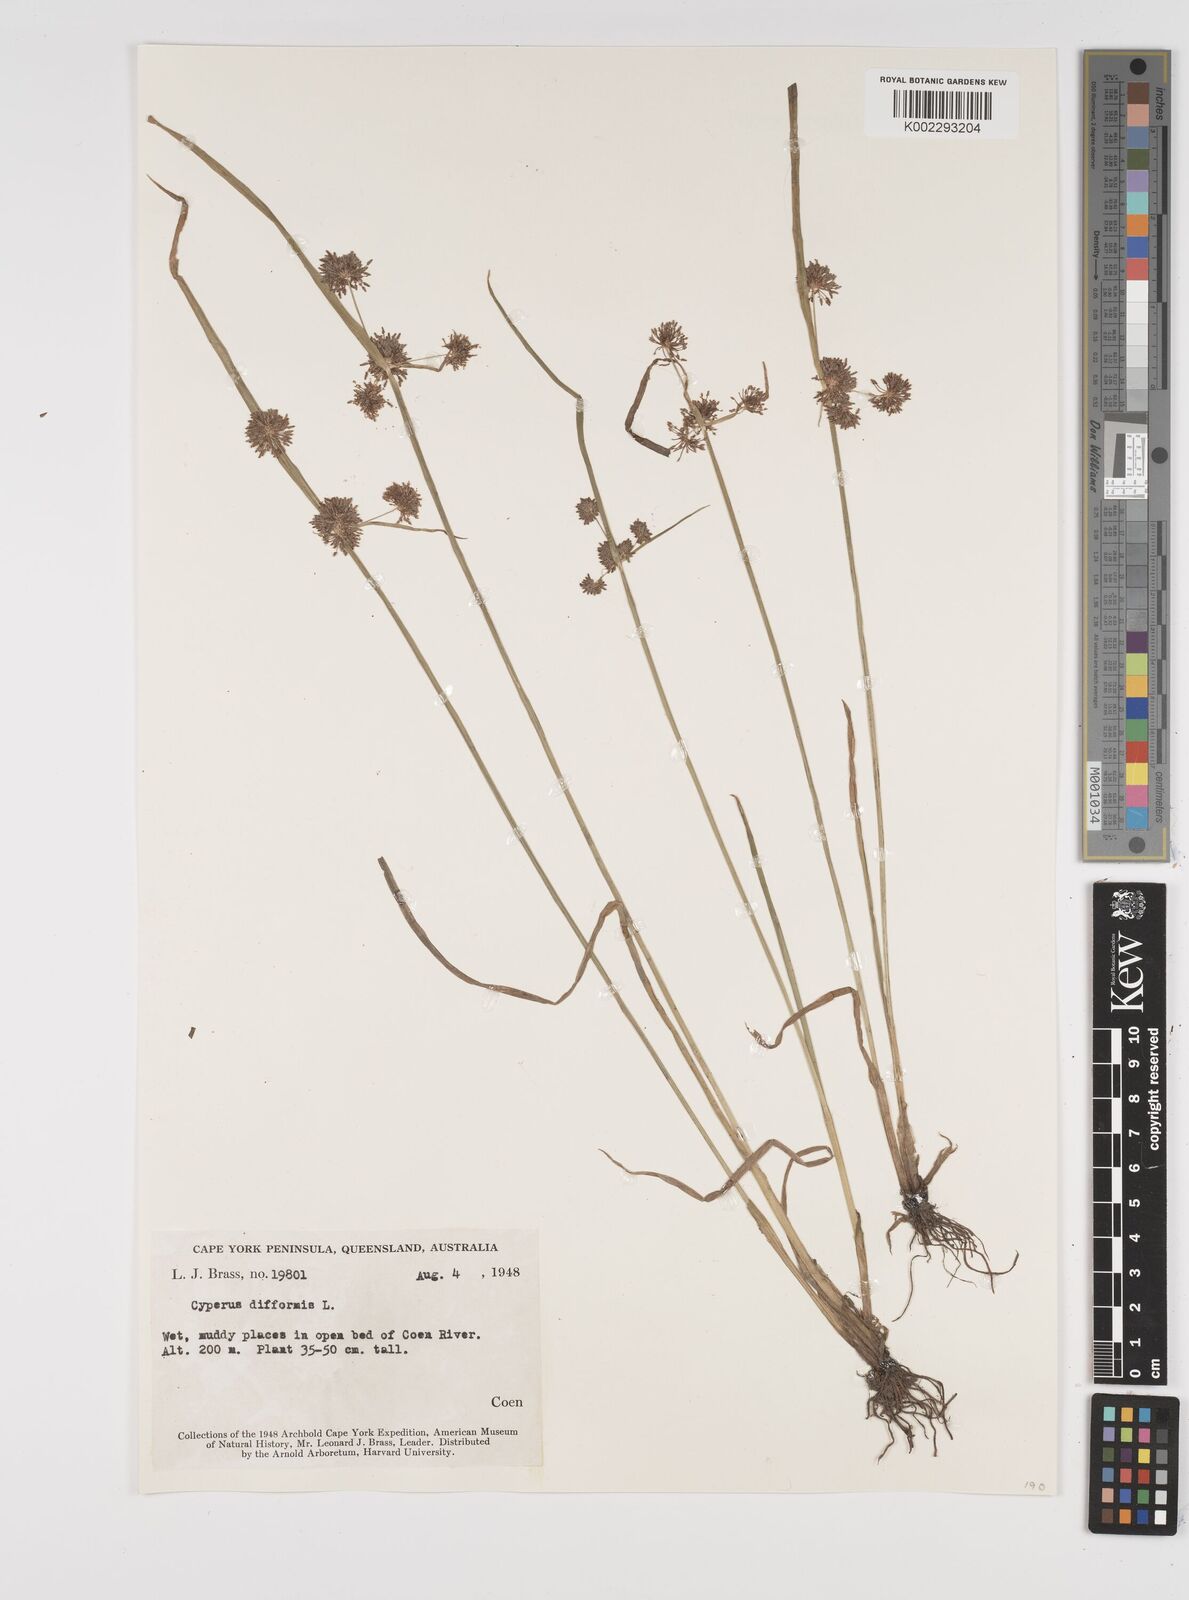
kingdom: Plantae
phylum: Tracheophyta
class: Liliopsida
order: Poales
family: Cyperaceae
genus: Cyperus
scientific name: Cyperus difformis
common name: Variable flatsedge
